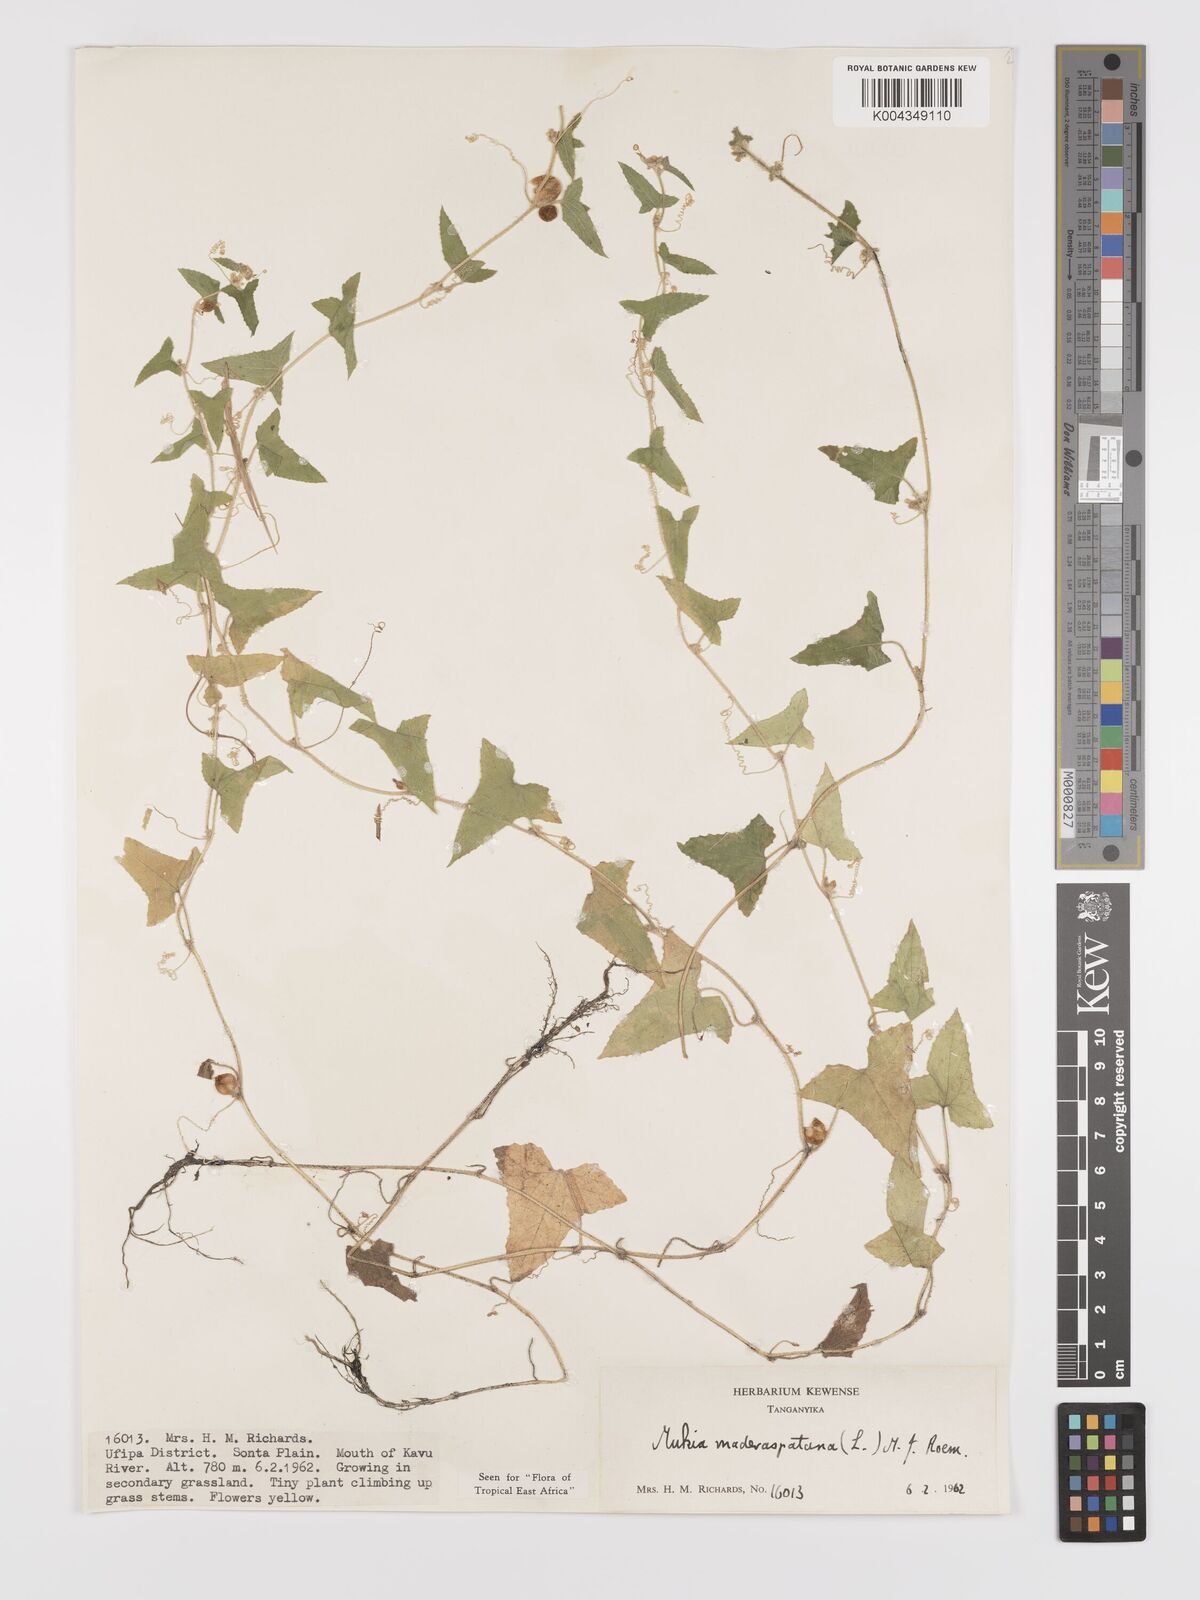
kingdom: Plantae
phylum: Tracheophyta
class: Magnoliopsida
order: Cucurbitales
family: Cucurbitaceae
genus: Cucumis
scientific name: Cucumis maderaspatanus
